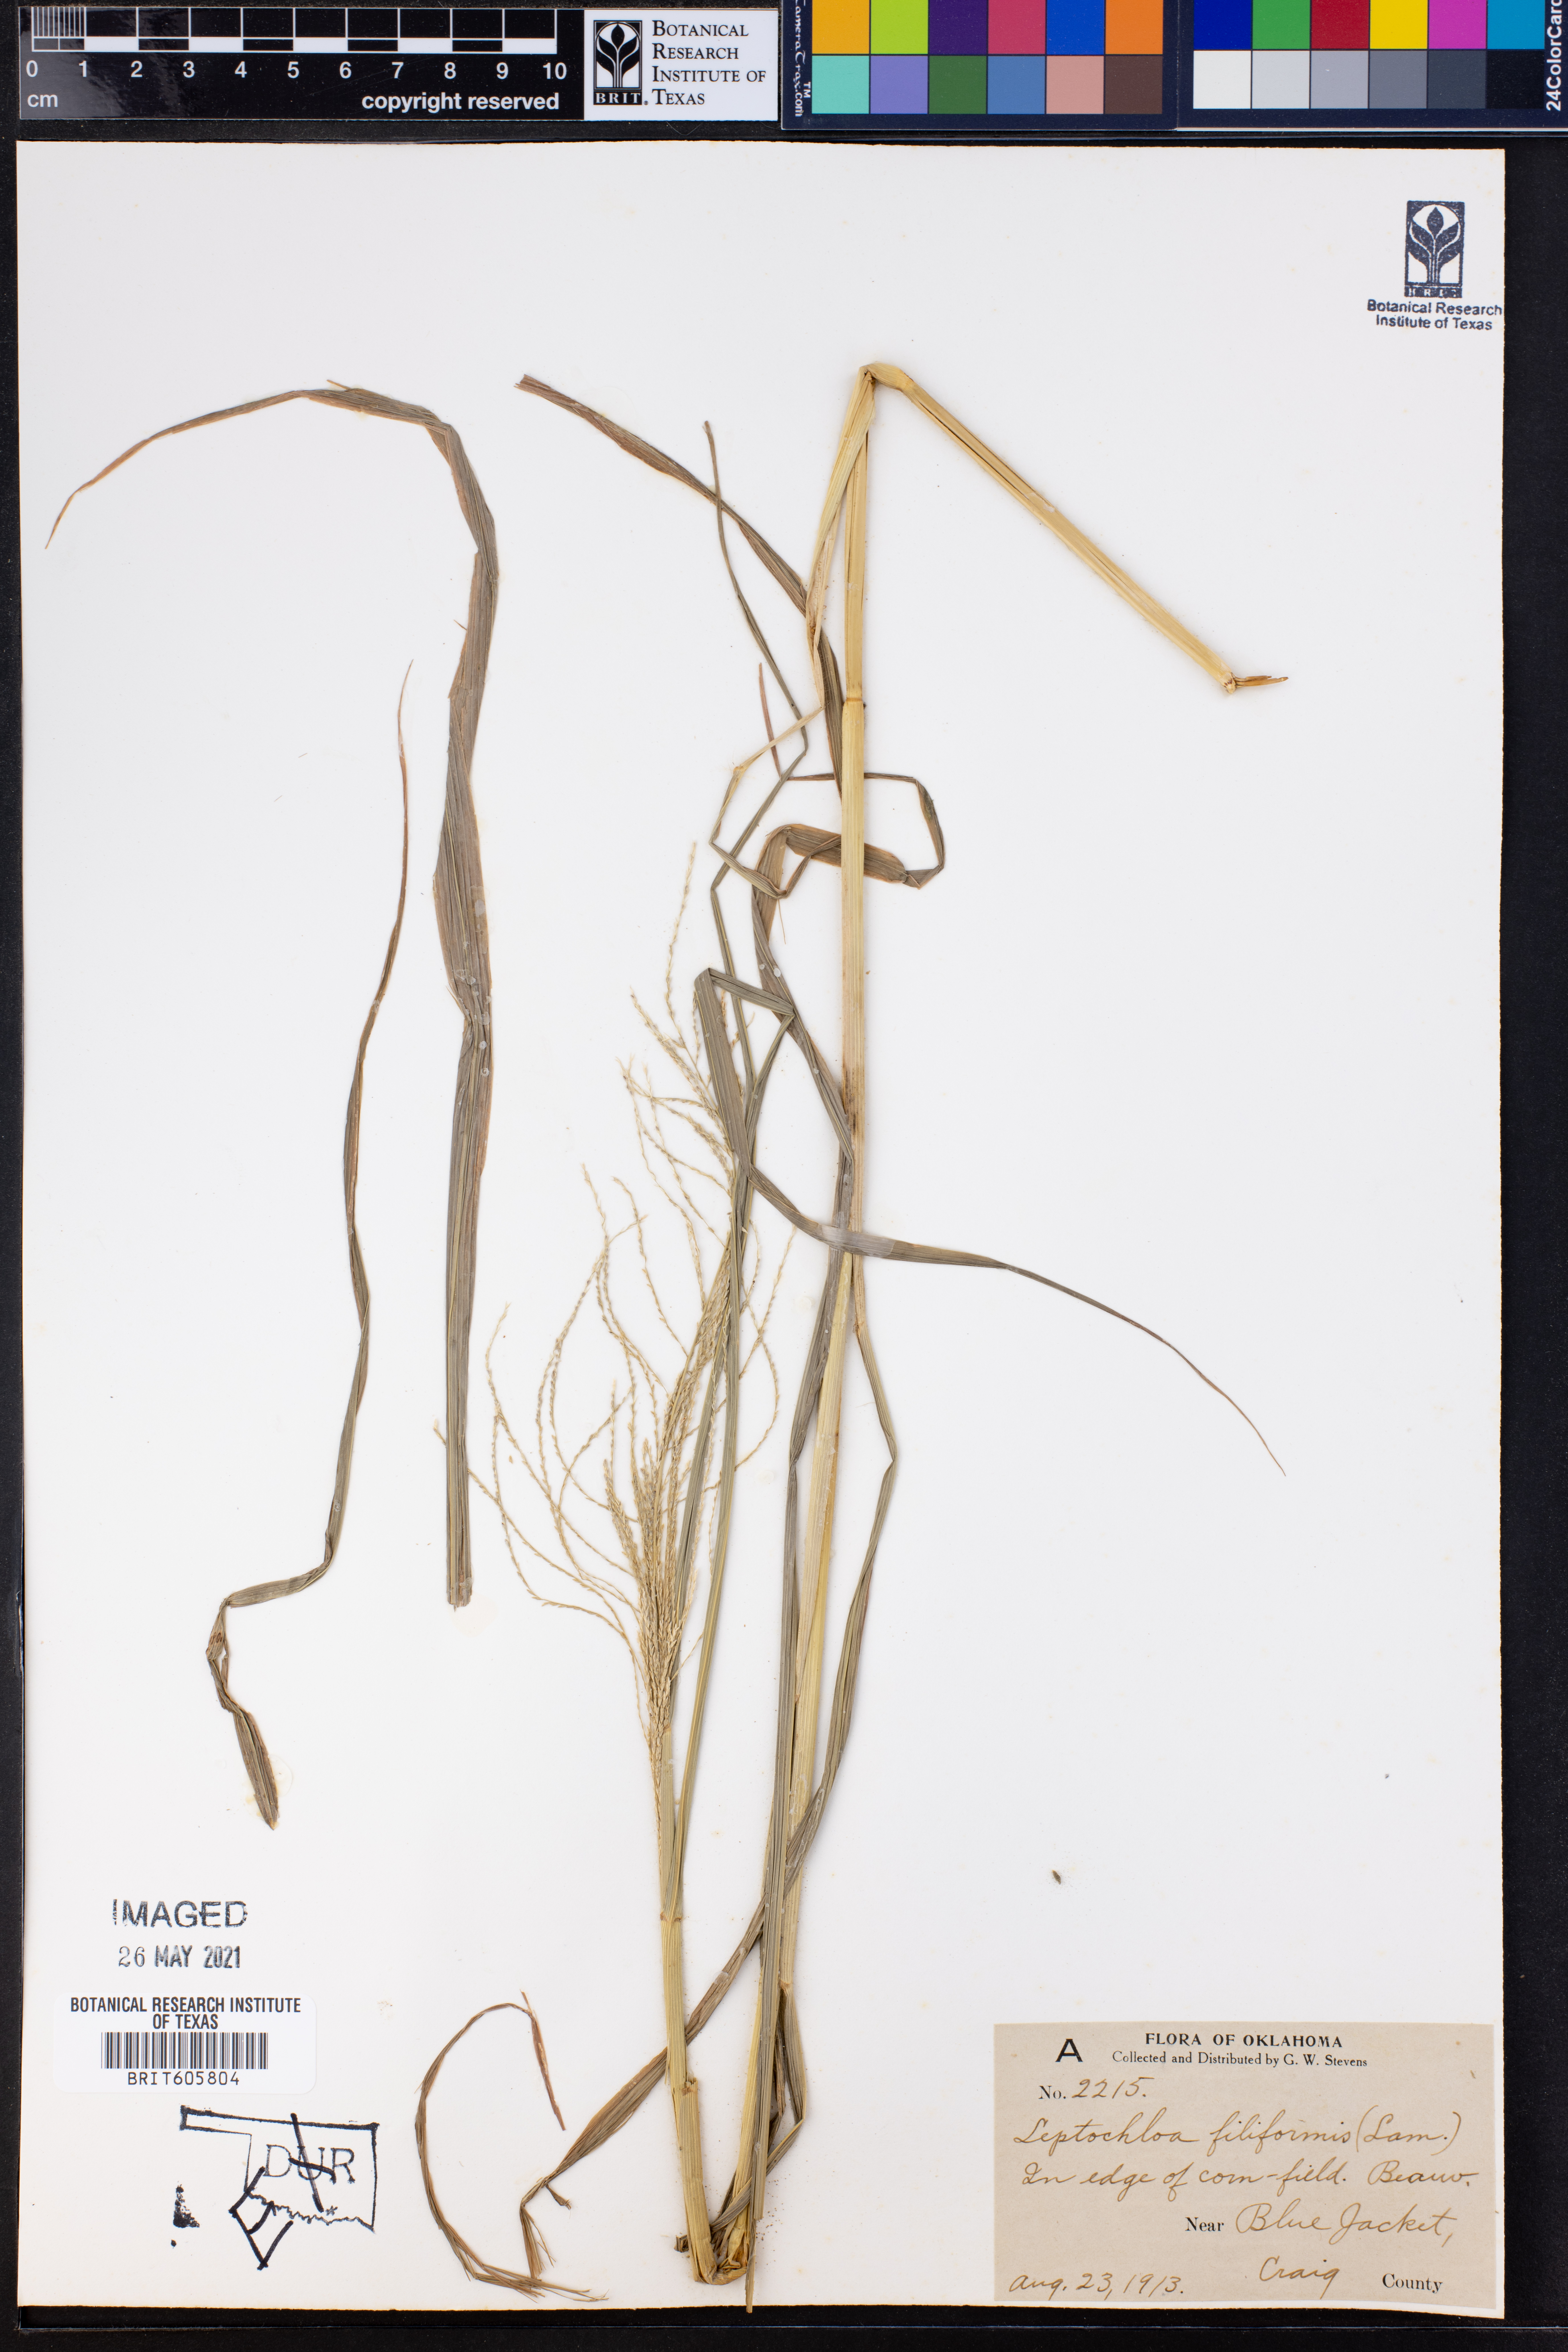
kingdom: Plantae
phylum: Tracheophyta
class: Liliopsida
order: Poales
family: Poaceae
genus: Leptochloa
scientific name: Leptochloa mucronata
